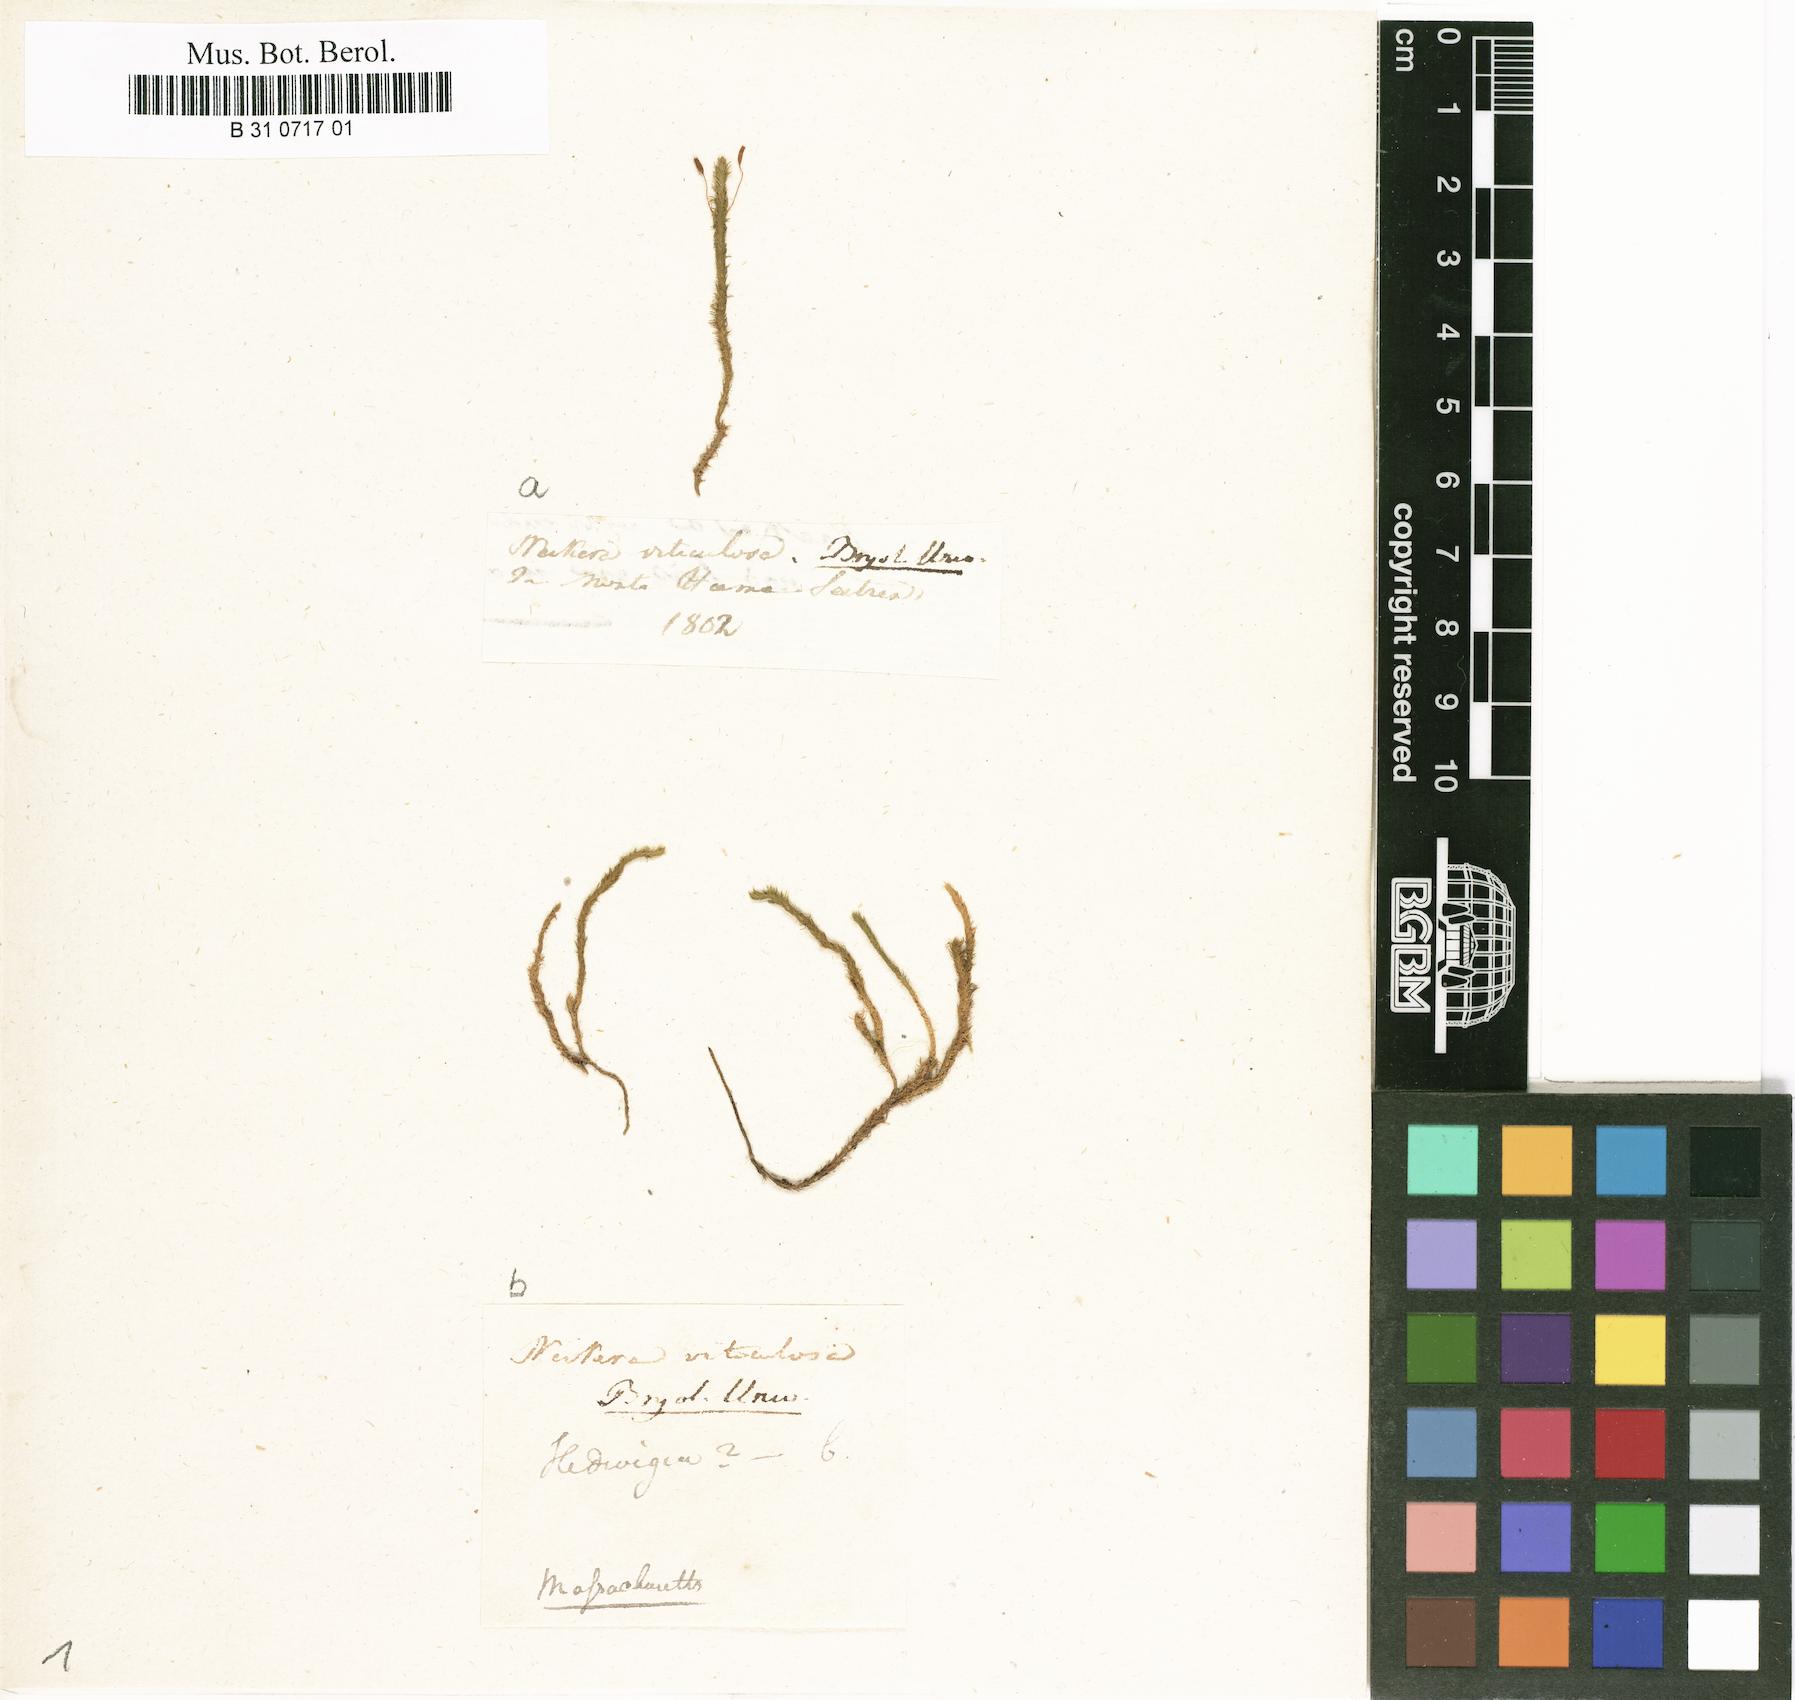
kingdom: Plantae
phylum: Bryophyta
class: Bryopsida
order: Hypnales
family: Anomodontaceae
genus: Anomodon
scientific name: Anomodon viticulosus
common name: Tall anomodon
